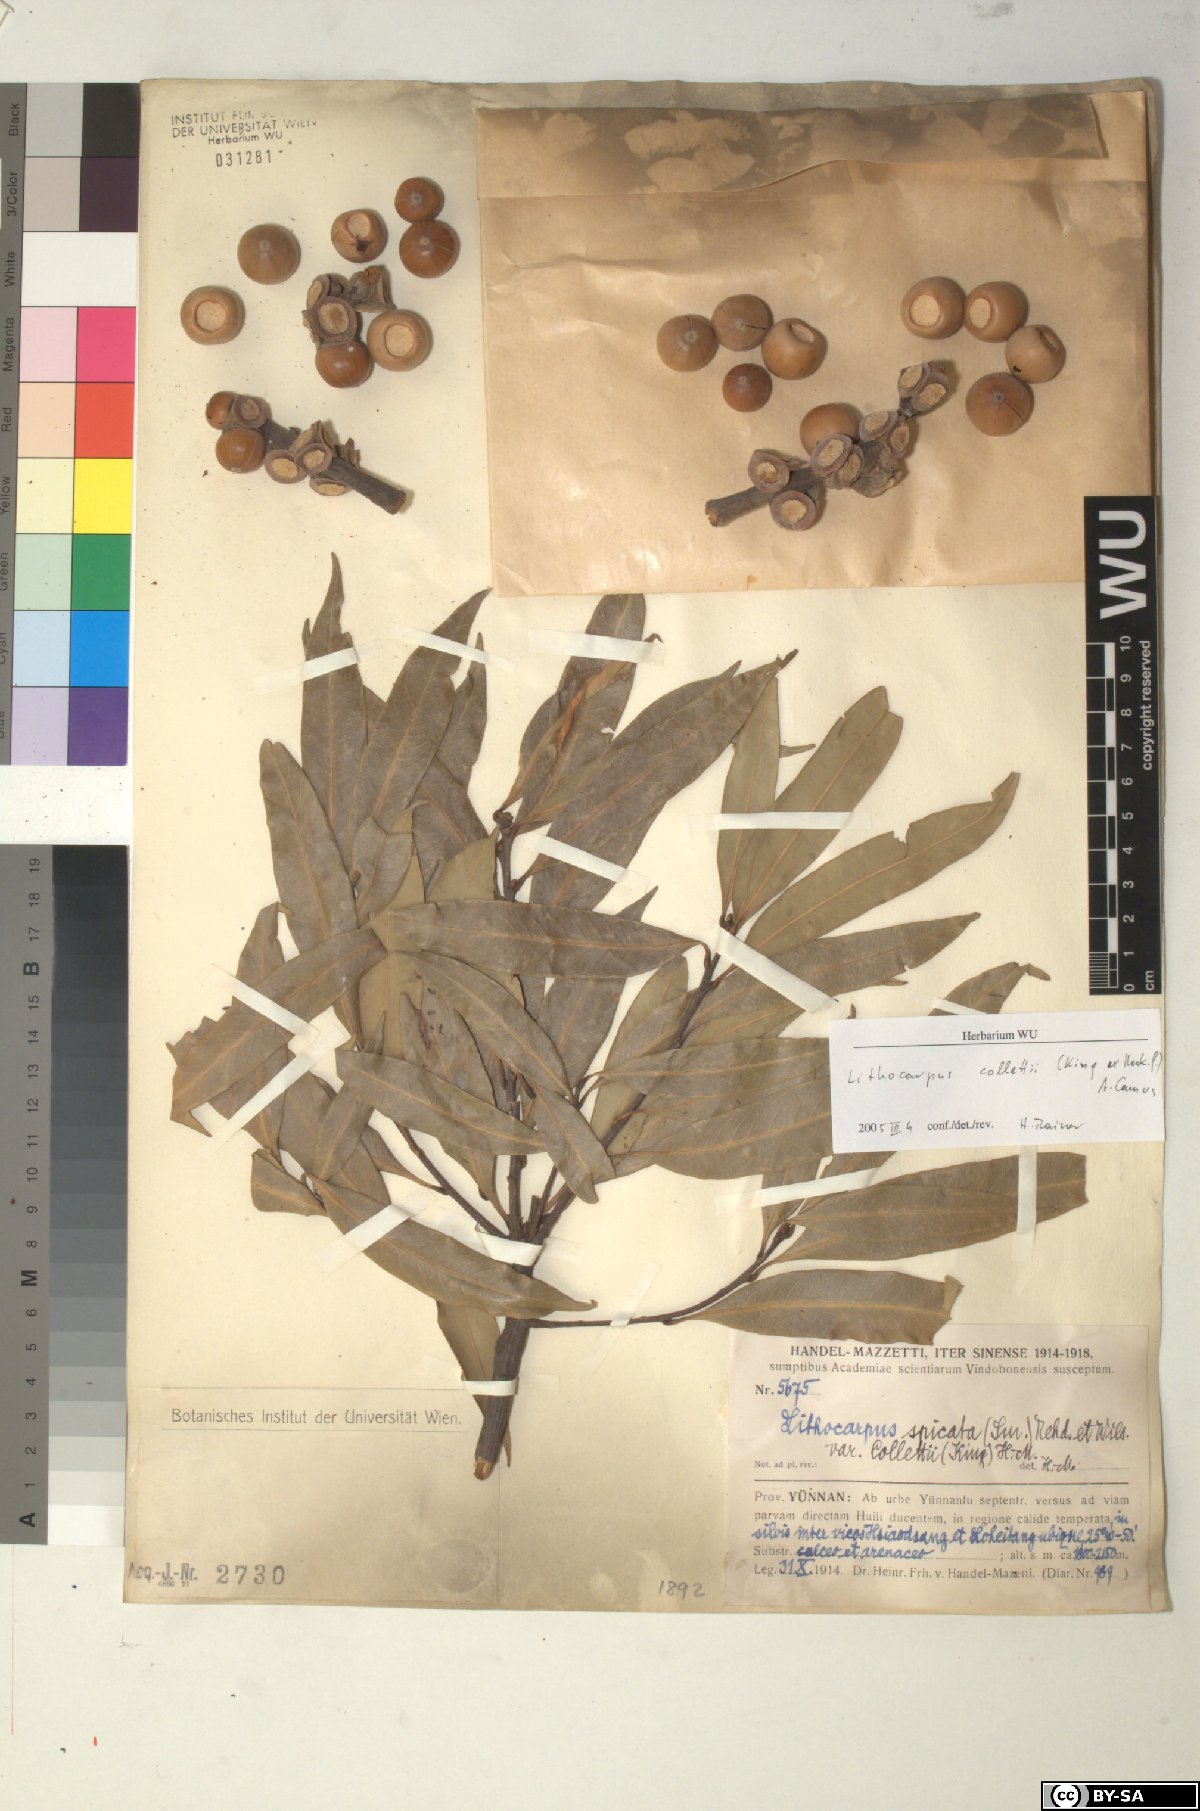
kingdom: Plantae
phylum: Tracheophyta
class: Magnoliopsida
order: Fagales
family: Fagaceae
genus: Lithocarpus
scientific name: Lithocarpus elegans
